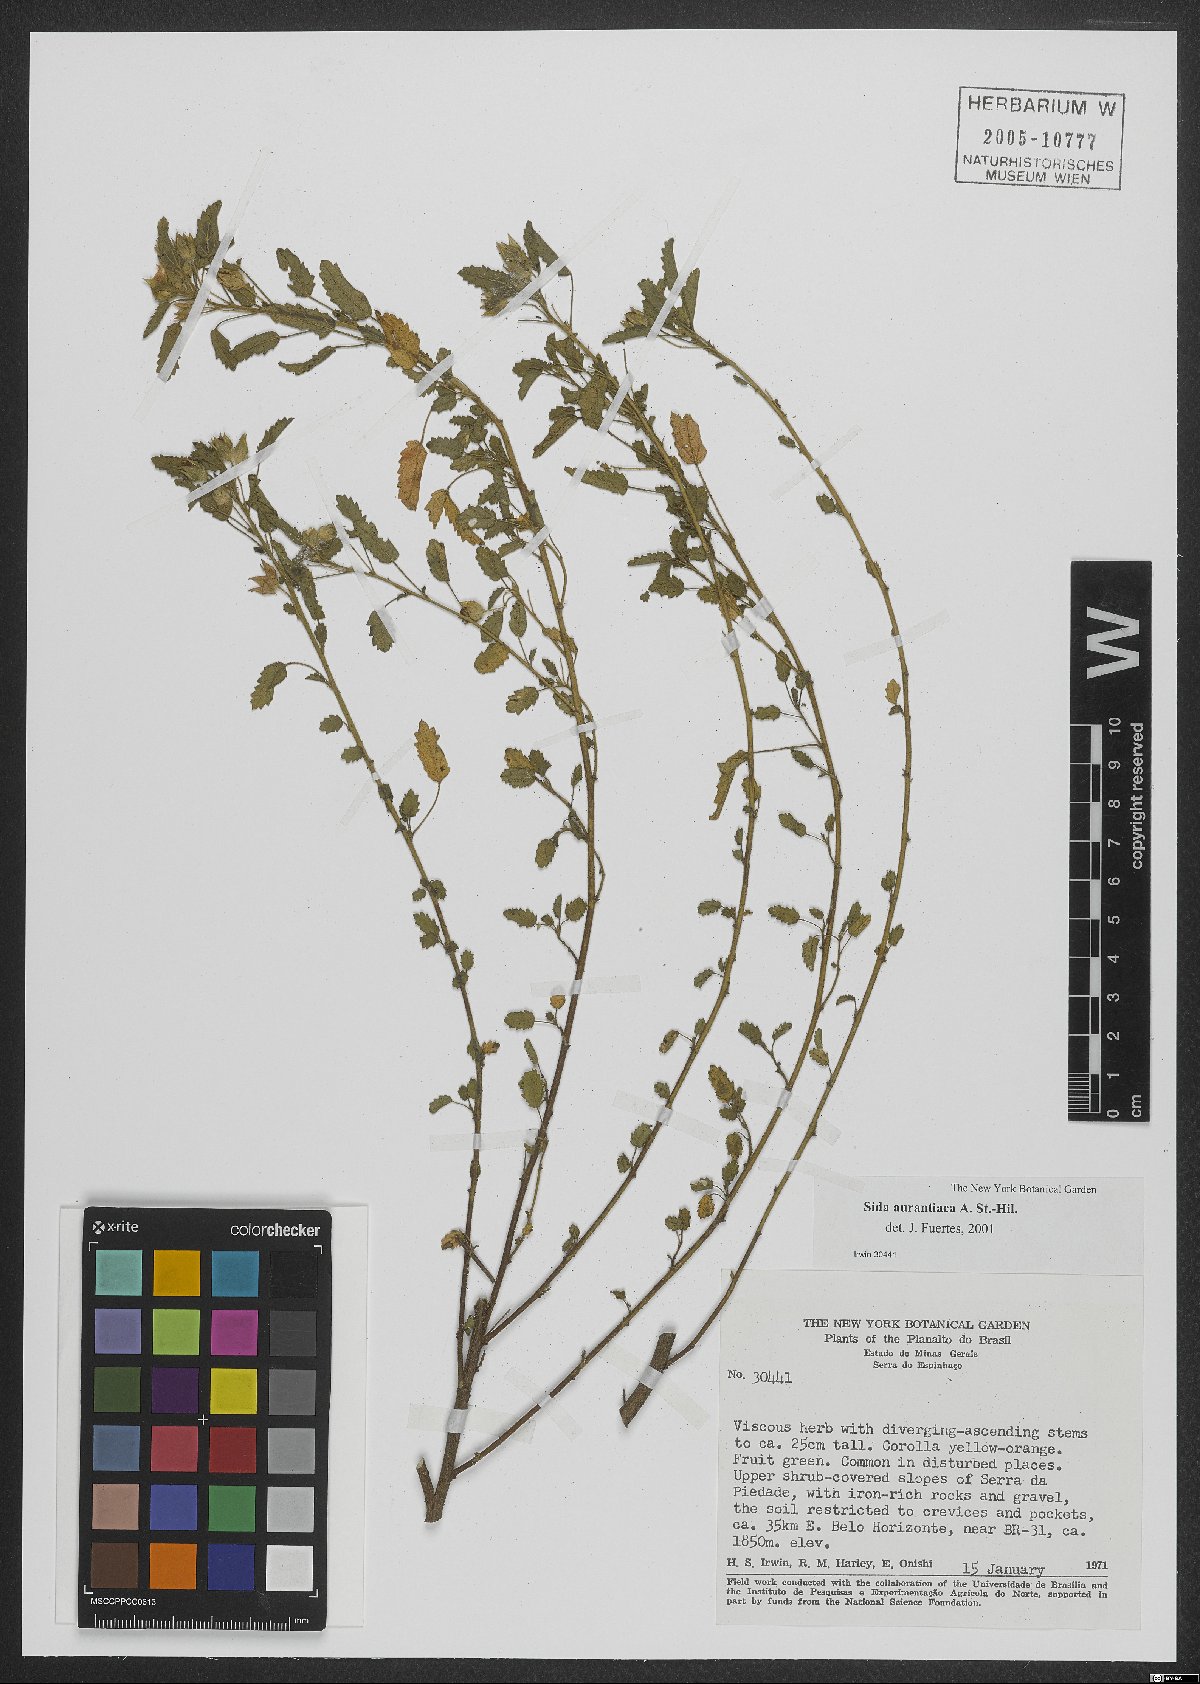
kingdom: Plantae
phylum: Tracheophyta
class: Magnoliopsida
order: Malvales
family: Malvaceae
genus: Sida
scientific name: Sida aurantiaca
